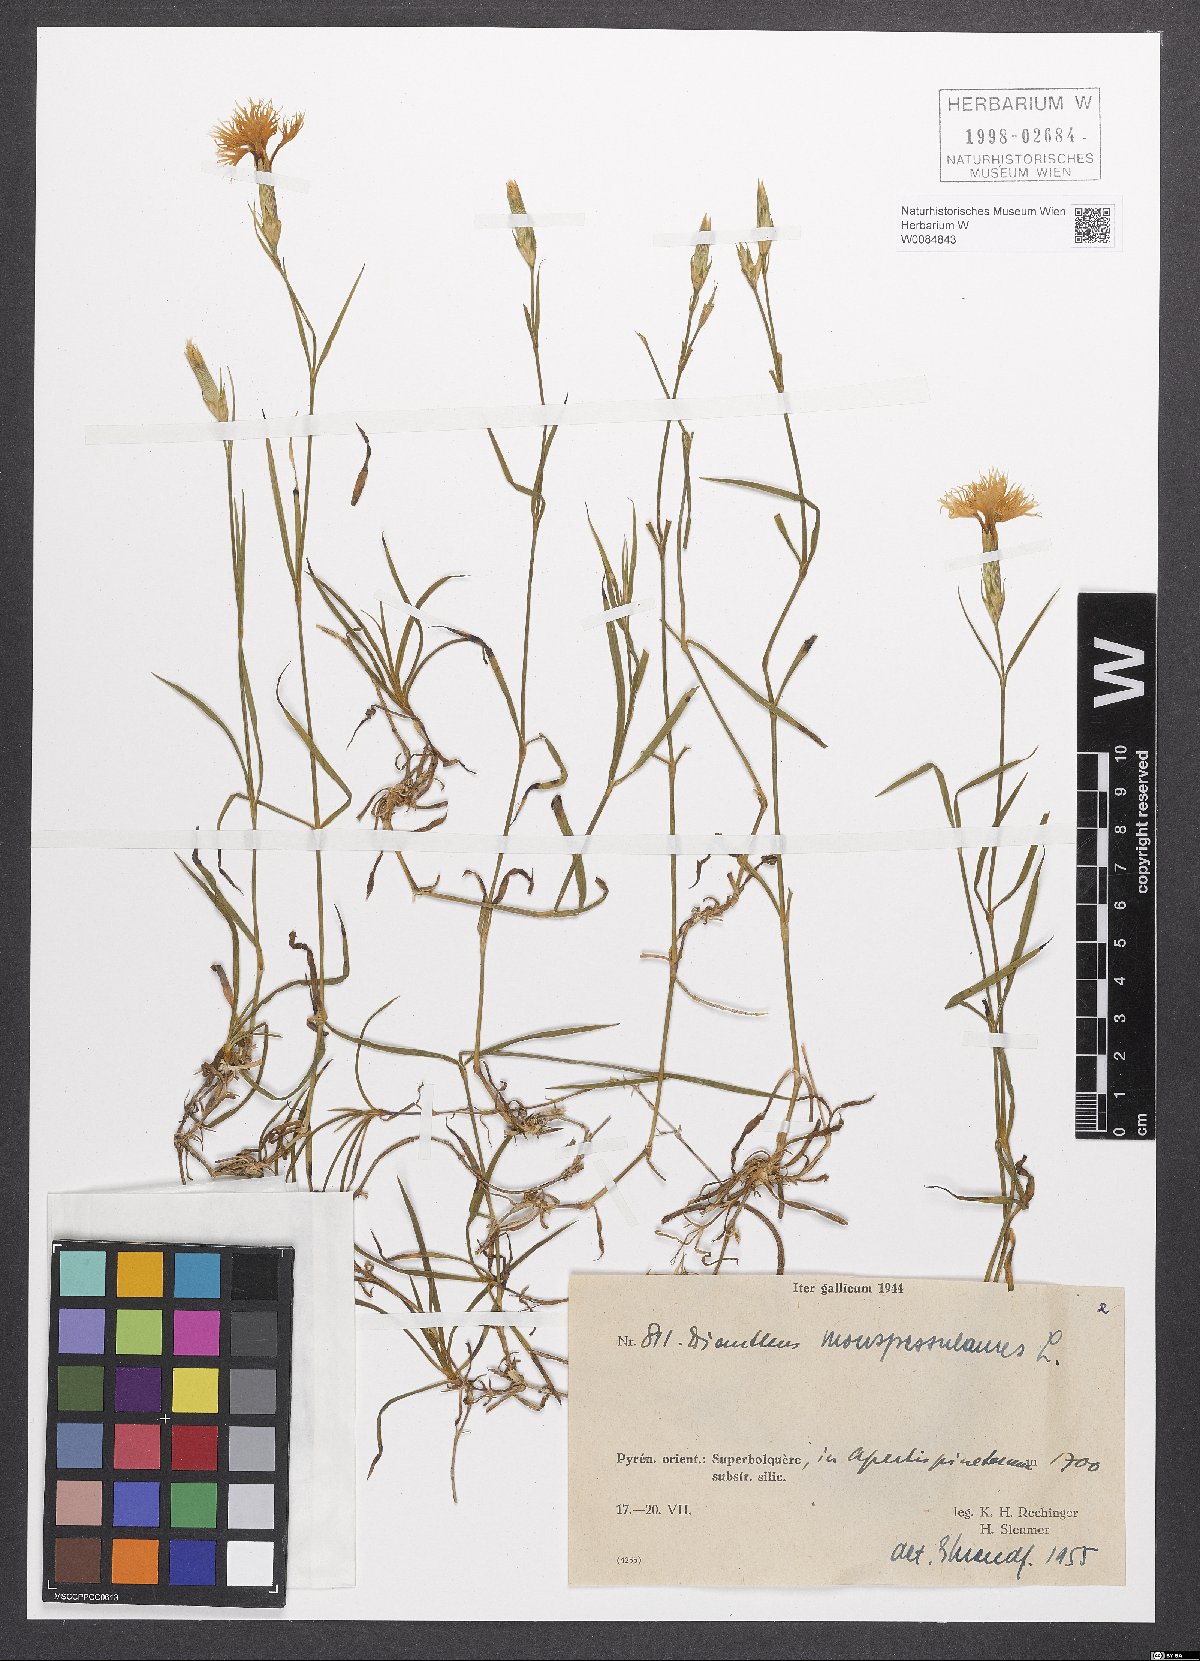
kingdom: Plantae
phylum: Tracheophyta
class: Magnoliopsida
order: Caryophyllales
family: Caryophyllaceae
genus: Dianthus
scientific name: Dianthus hyssopifolius
